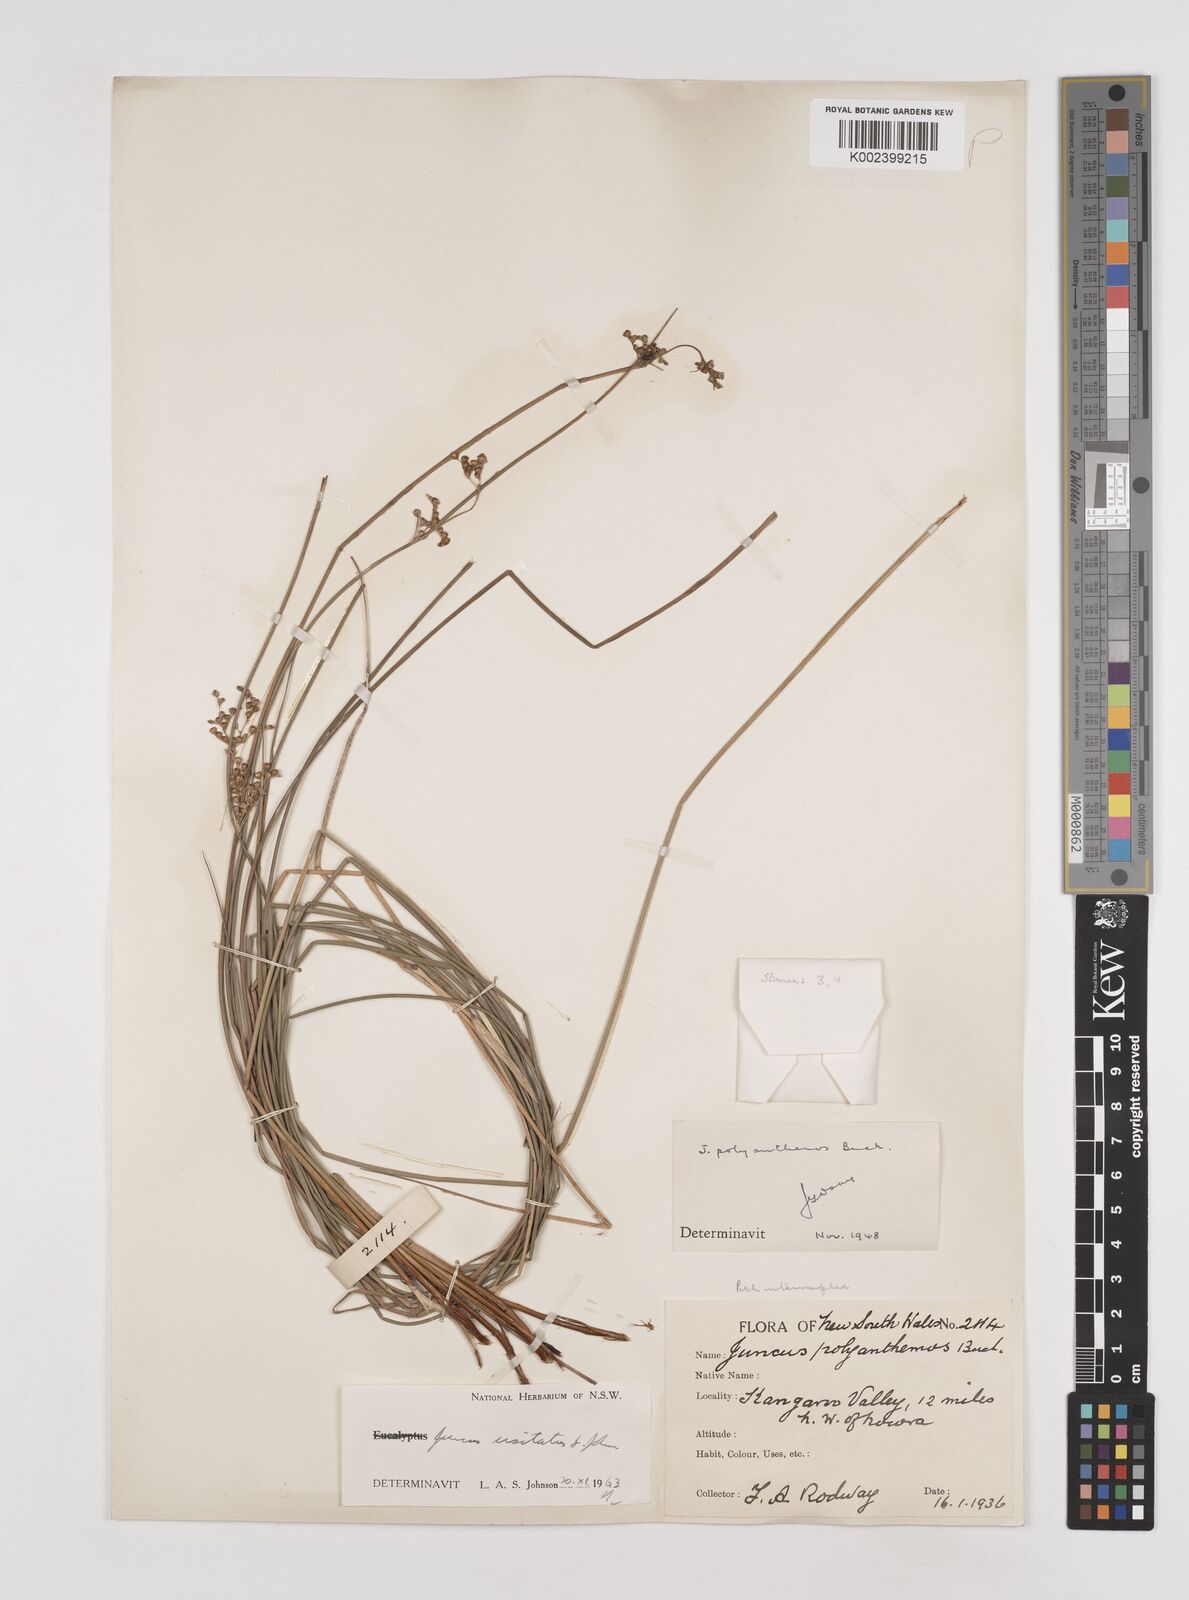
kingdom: Plantae
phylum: Tracheophyta
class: Liliopsida
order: Poales
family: Juncaceae
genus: Juncus
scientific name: Juncus usitatus
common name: Rush
